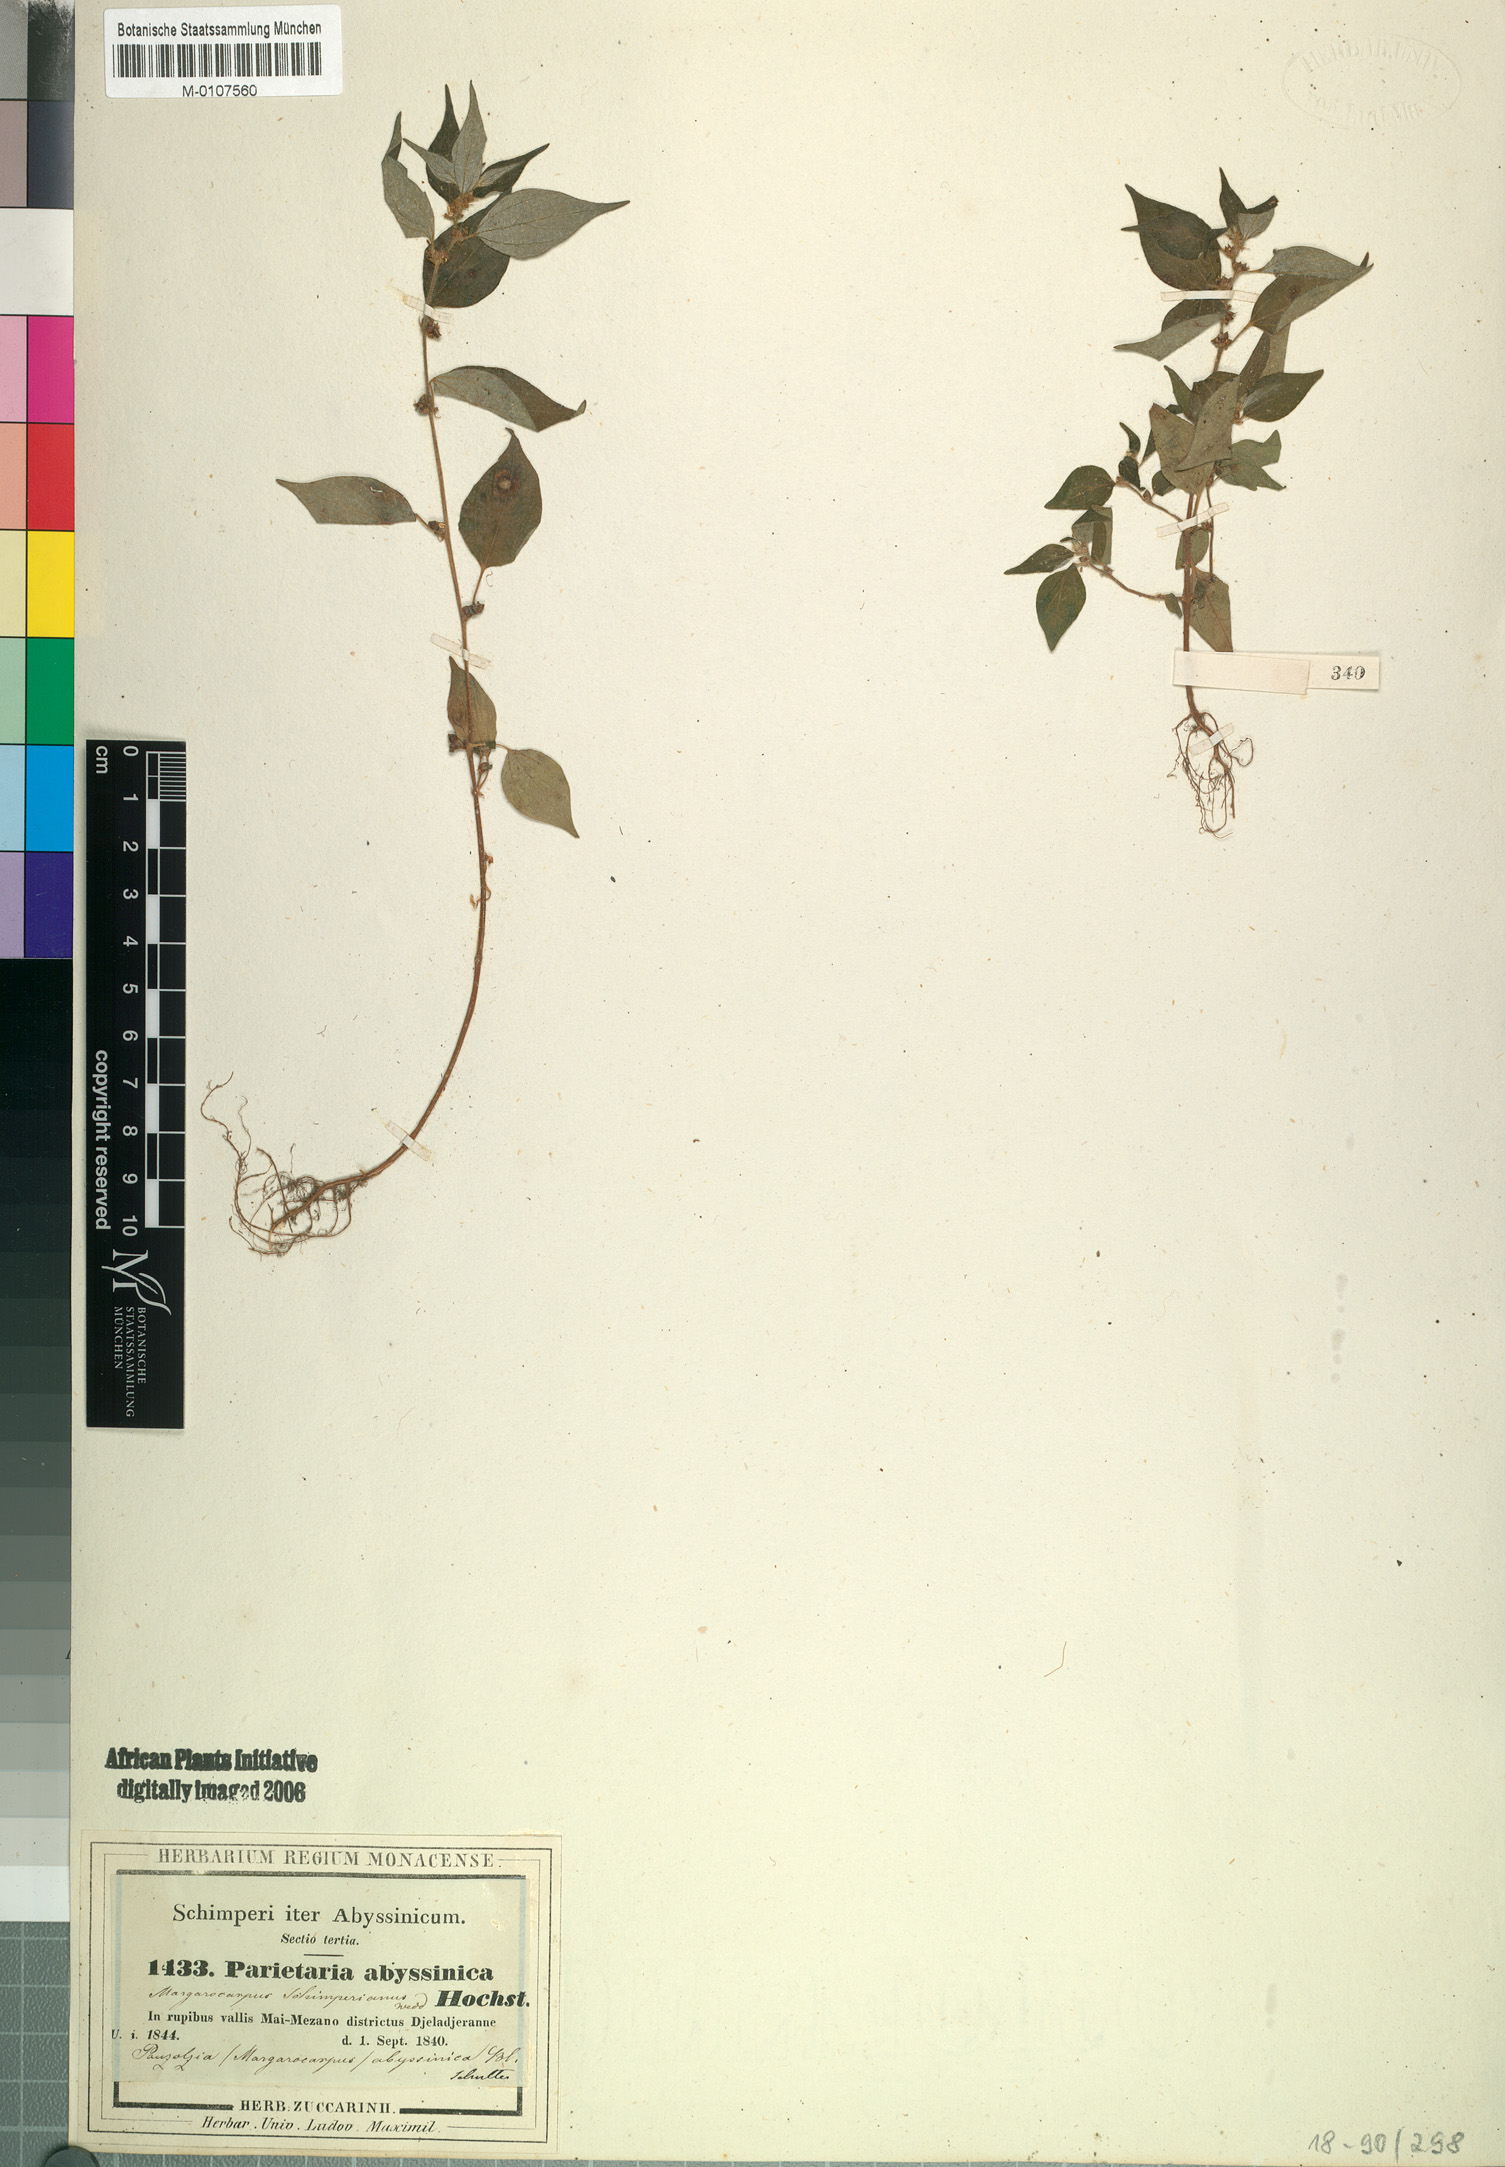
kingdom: Plantae
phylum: Tracheophyta
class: Magnoliopsida
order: Rosales
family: Urticaceae
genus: Pouzolzia
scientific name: Pouzolzia guineensis
